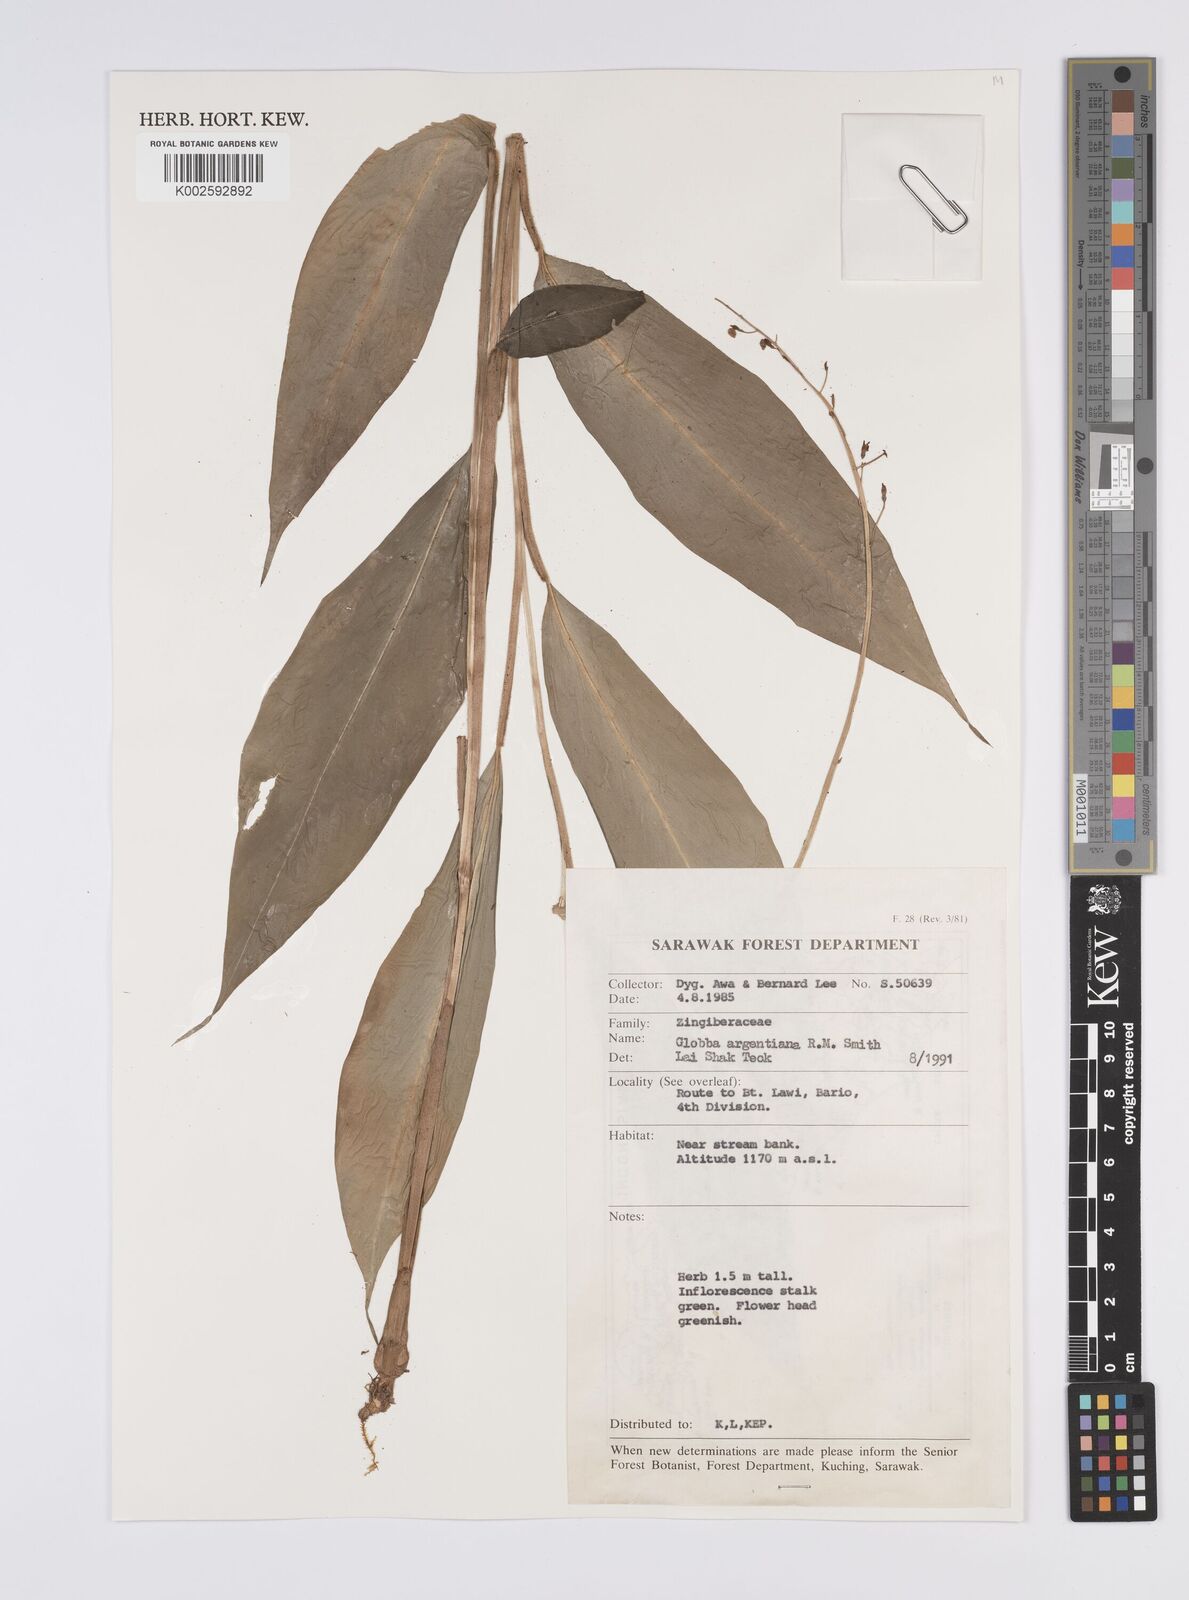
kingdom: Plantae
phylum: Tracheophyta
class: Liliopsida
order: Zingiberales
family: Zingiberaceae
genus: Globba
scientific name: Globba francisci
